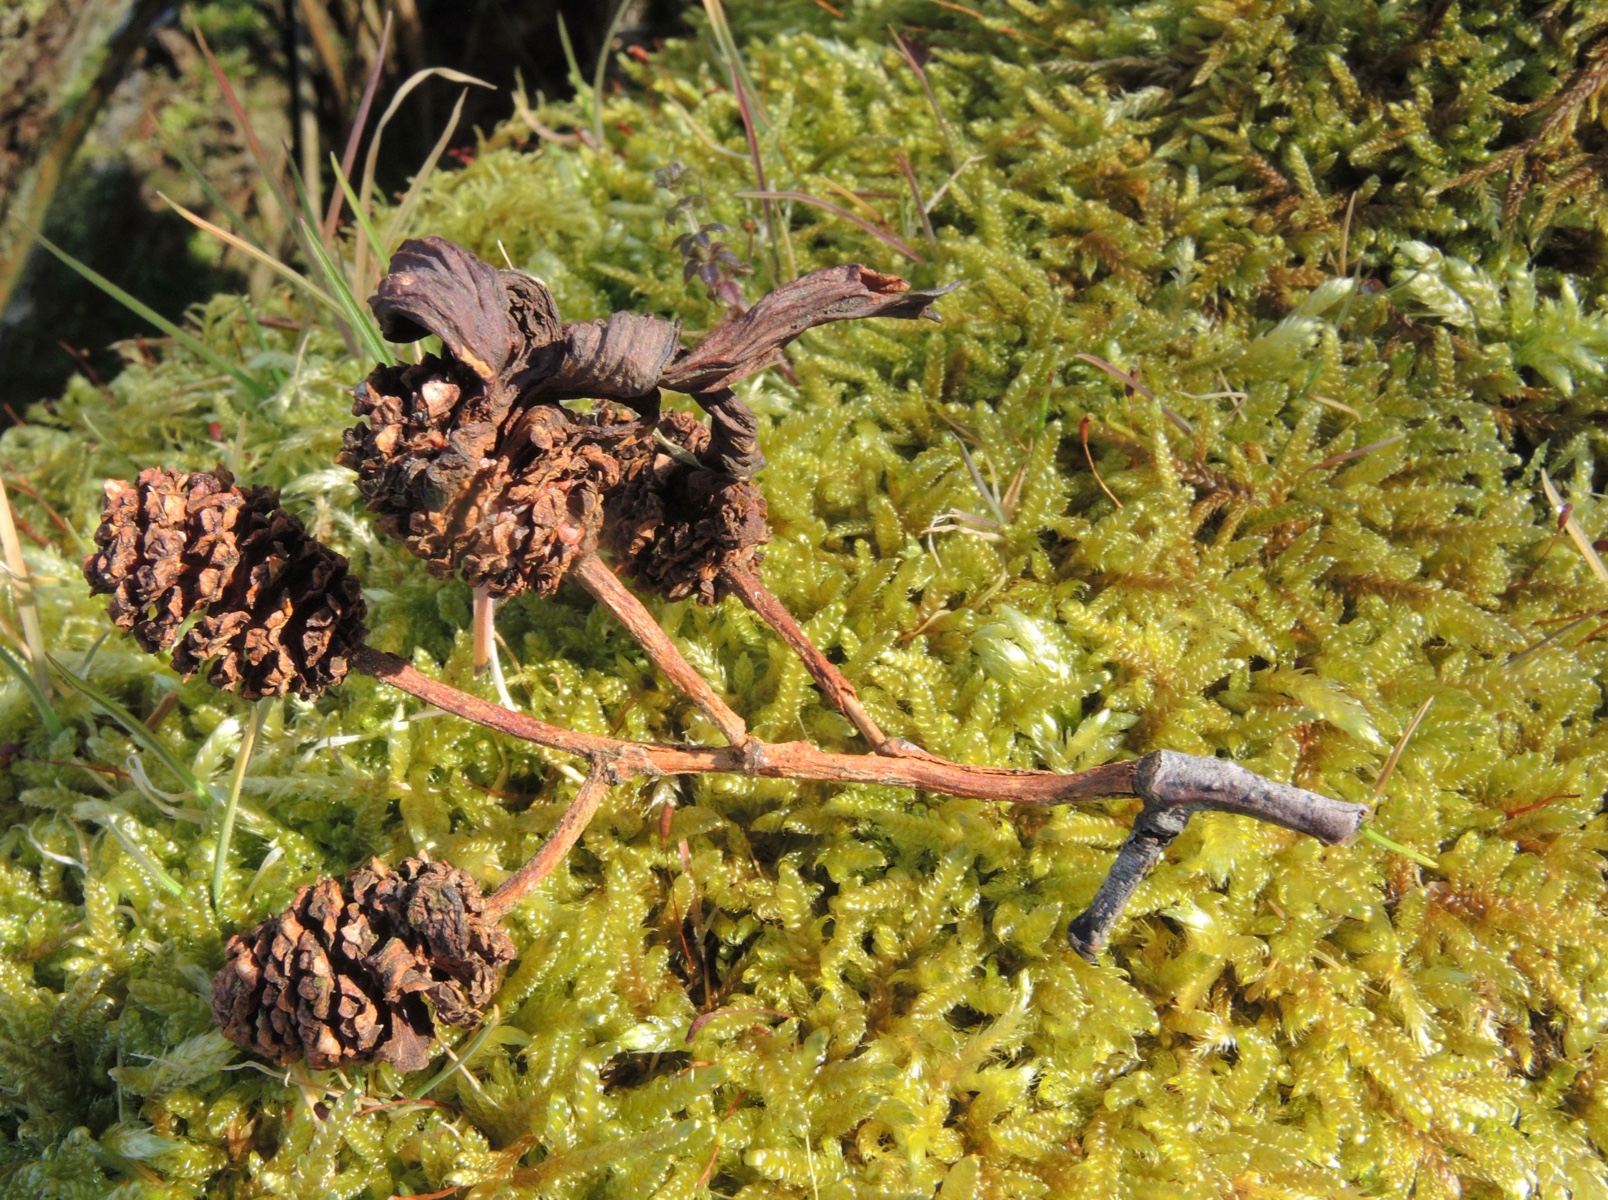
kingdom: Fungi
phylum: Ascomycota
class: Taphrinomycetes
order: Taphrinales
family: Taphrinaceae
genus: Taphrina
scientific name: Taphrina alni
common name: Alder tongue
